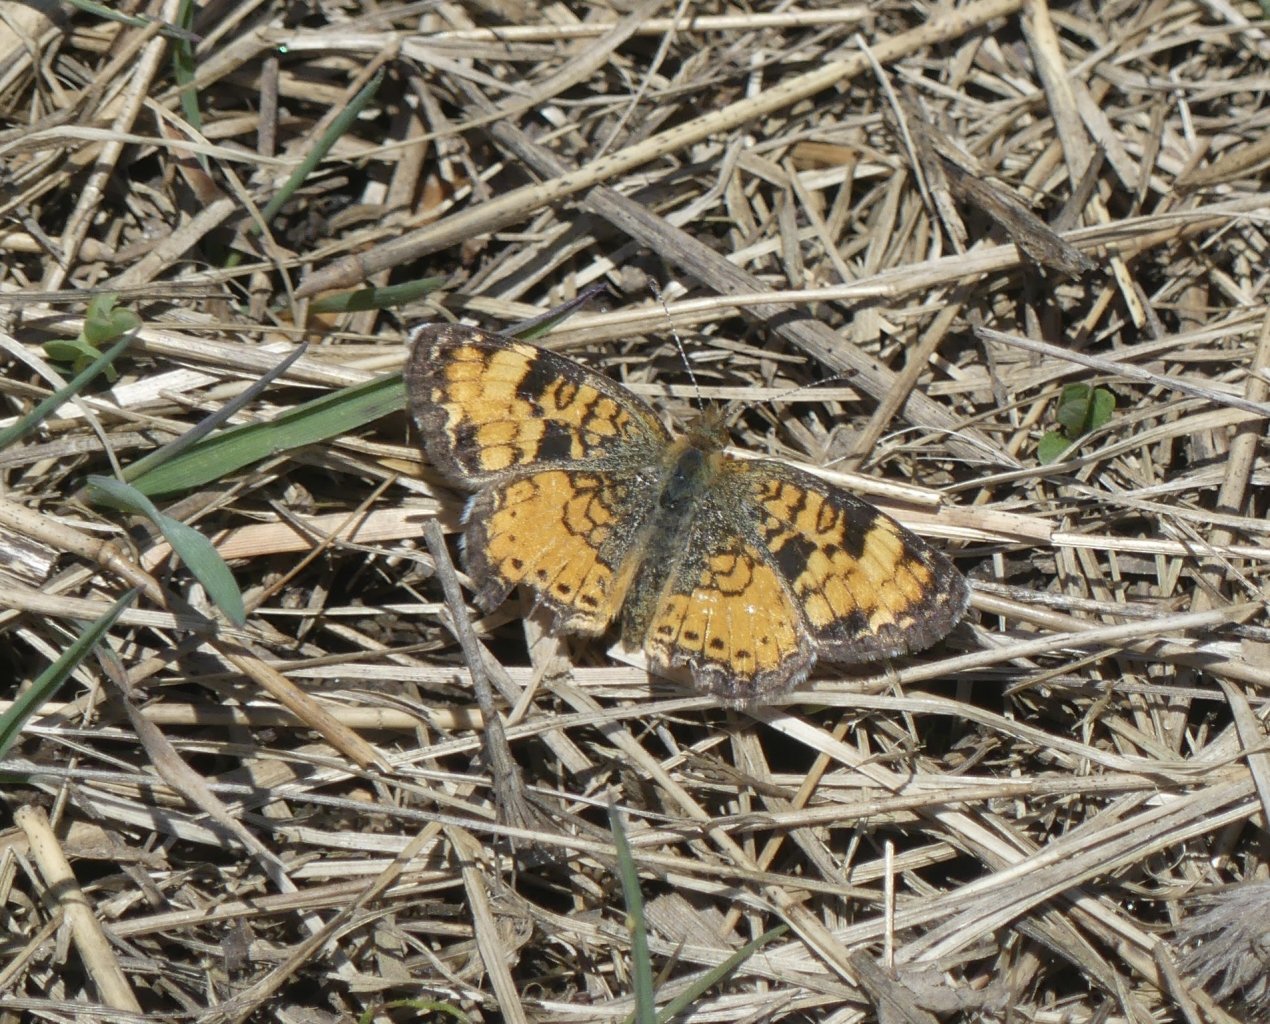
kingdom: Animalia
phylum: Arthropoda
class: Insecta
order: Lepidoptera
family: Nymphalidae
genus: Phyciodes
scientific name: Phyciodes tharos
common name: Pearl Crescent
